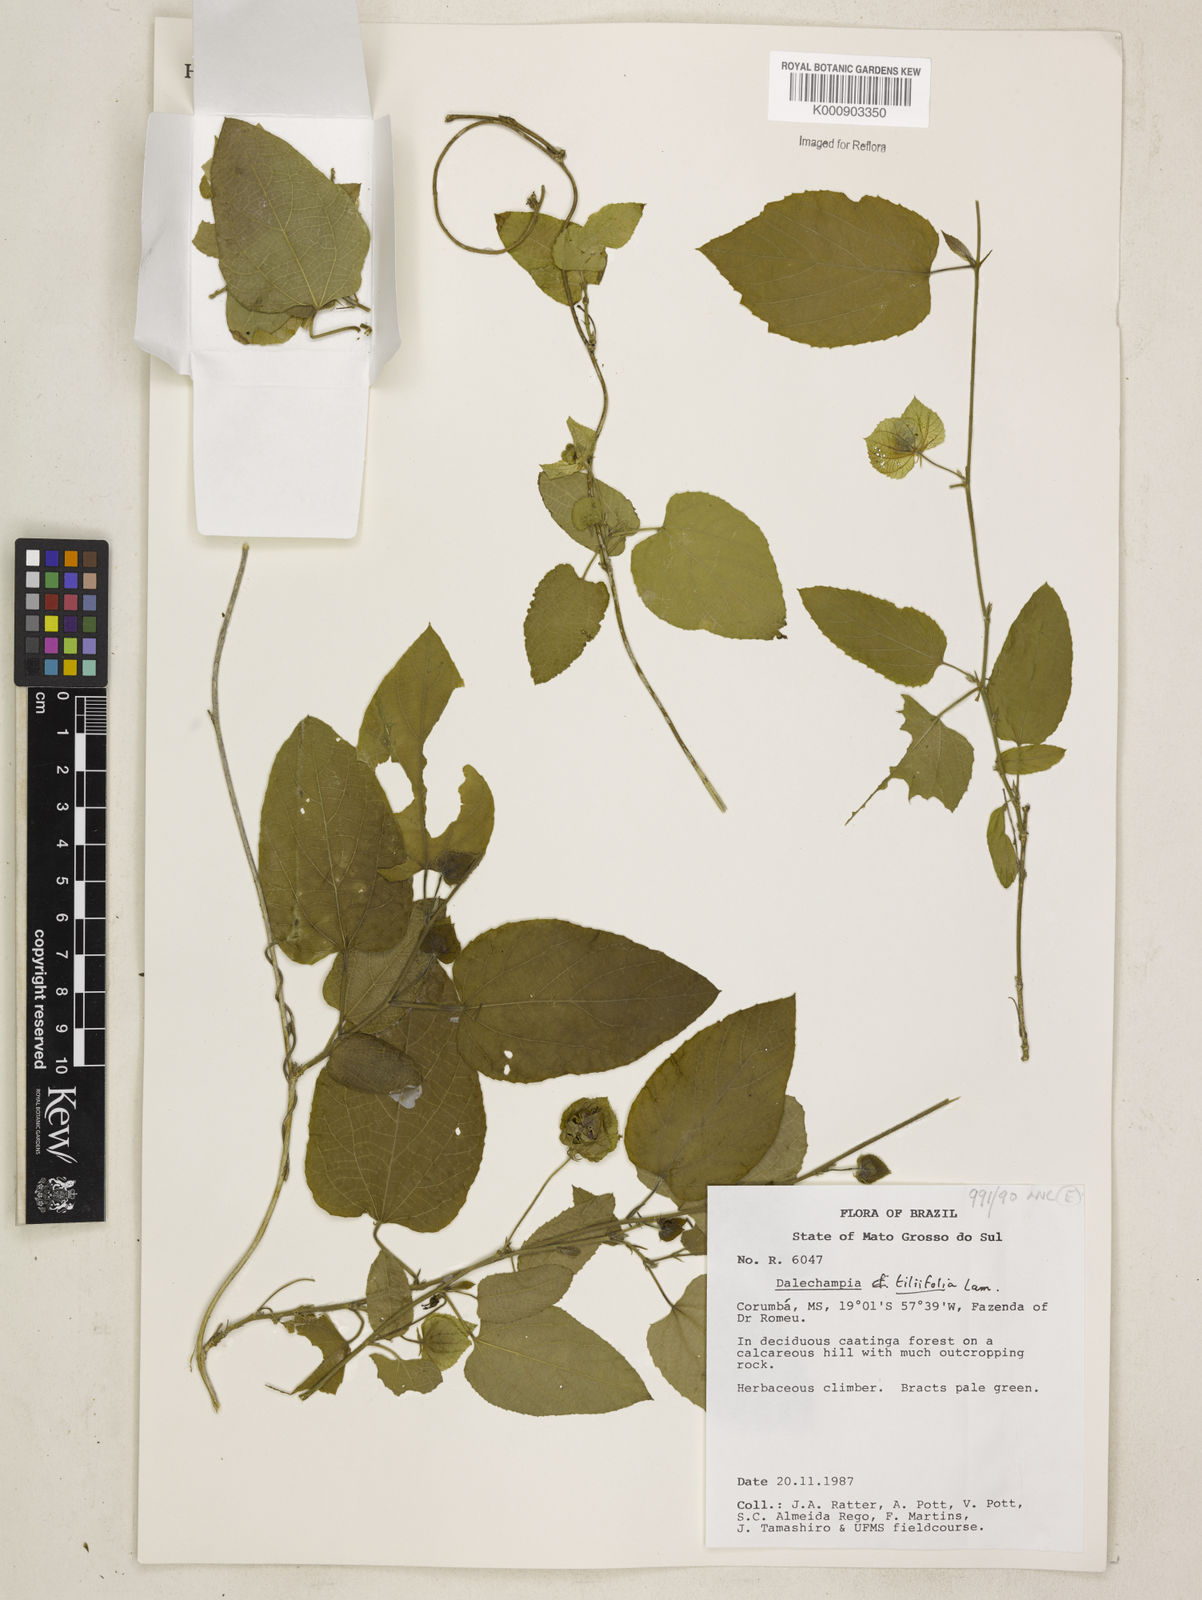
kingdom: Plantae
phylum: Tracheophyta
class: Magnoliopsida
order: Malpighiales
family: Euphorbiaceae
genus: Dalechampia
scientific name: Dalechampia tiliifolia
